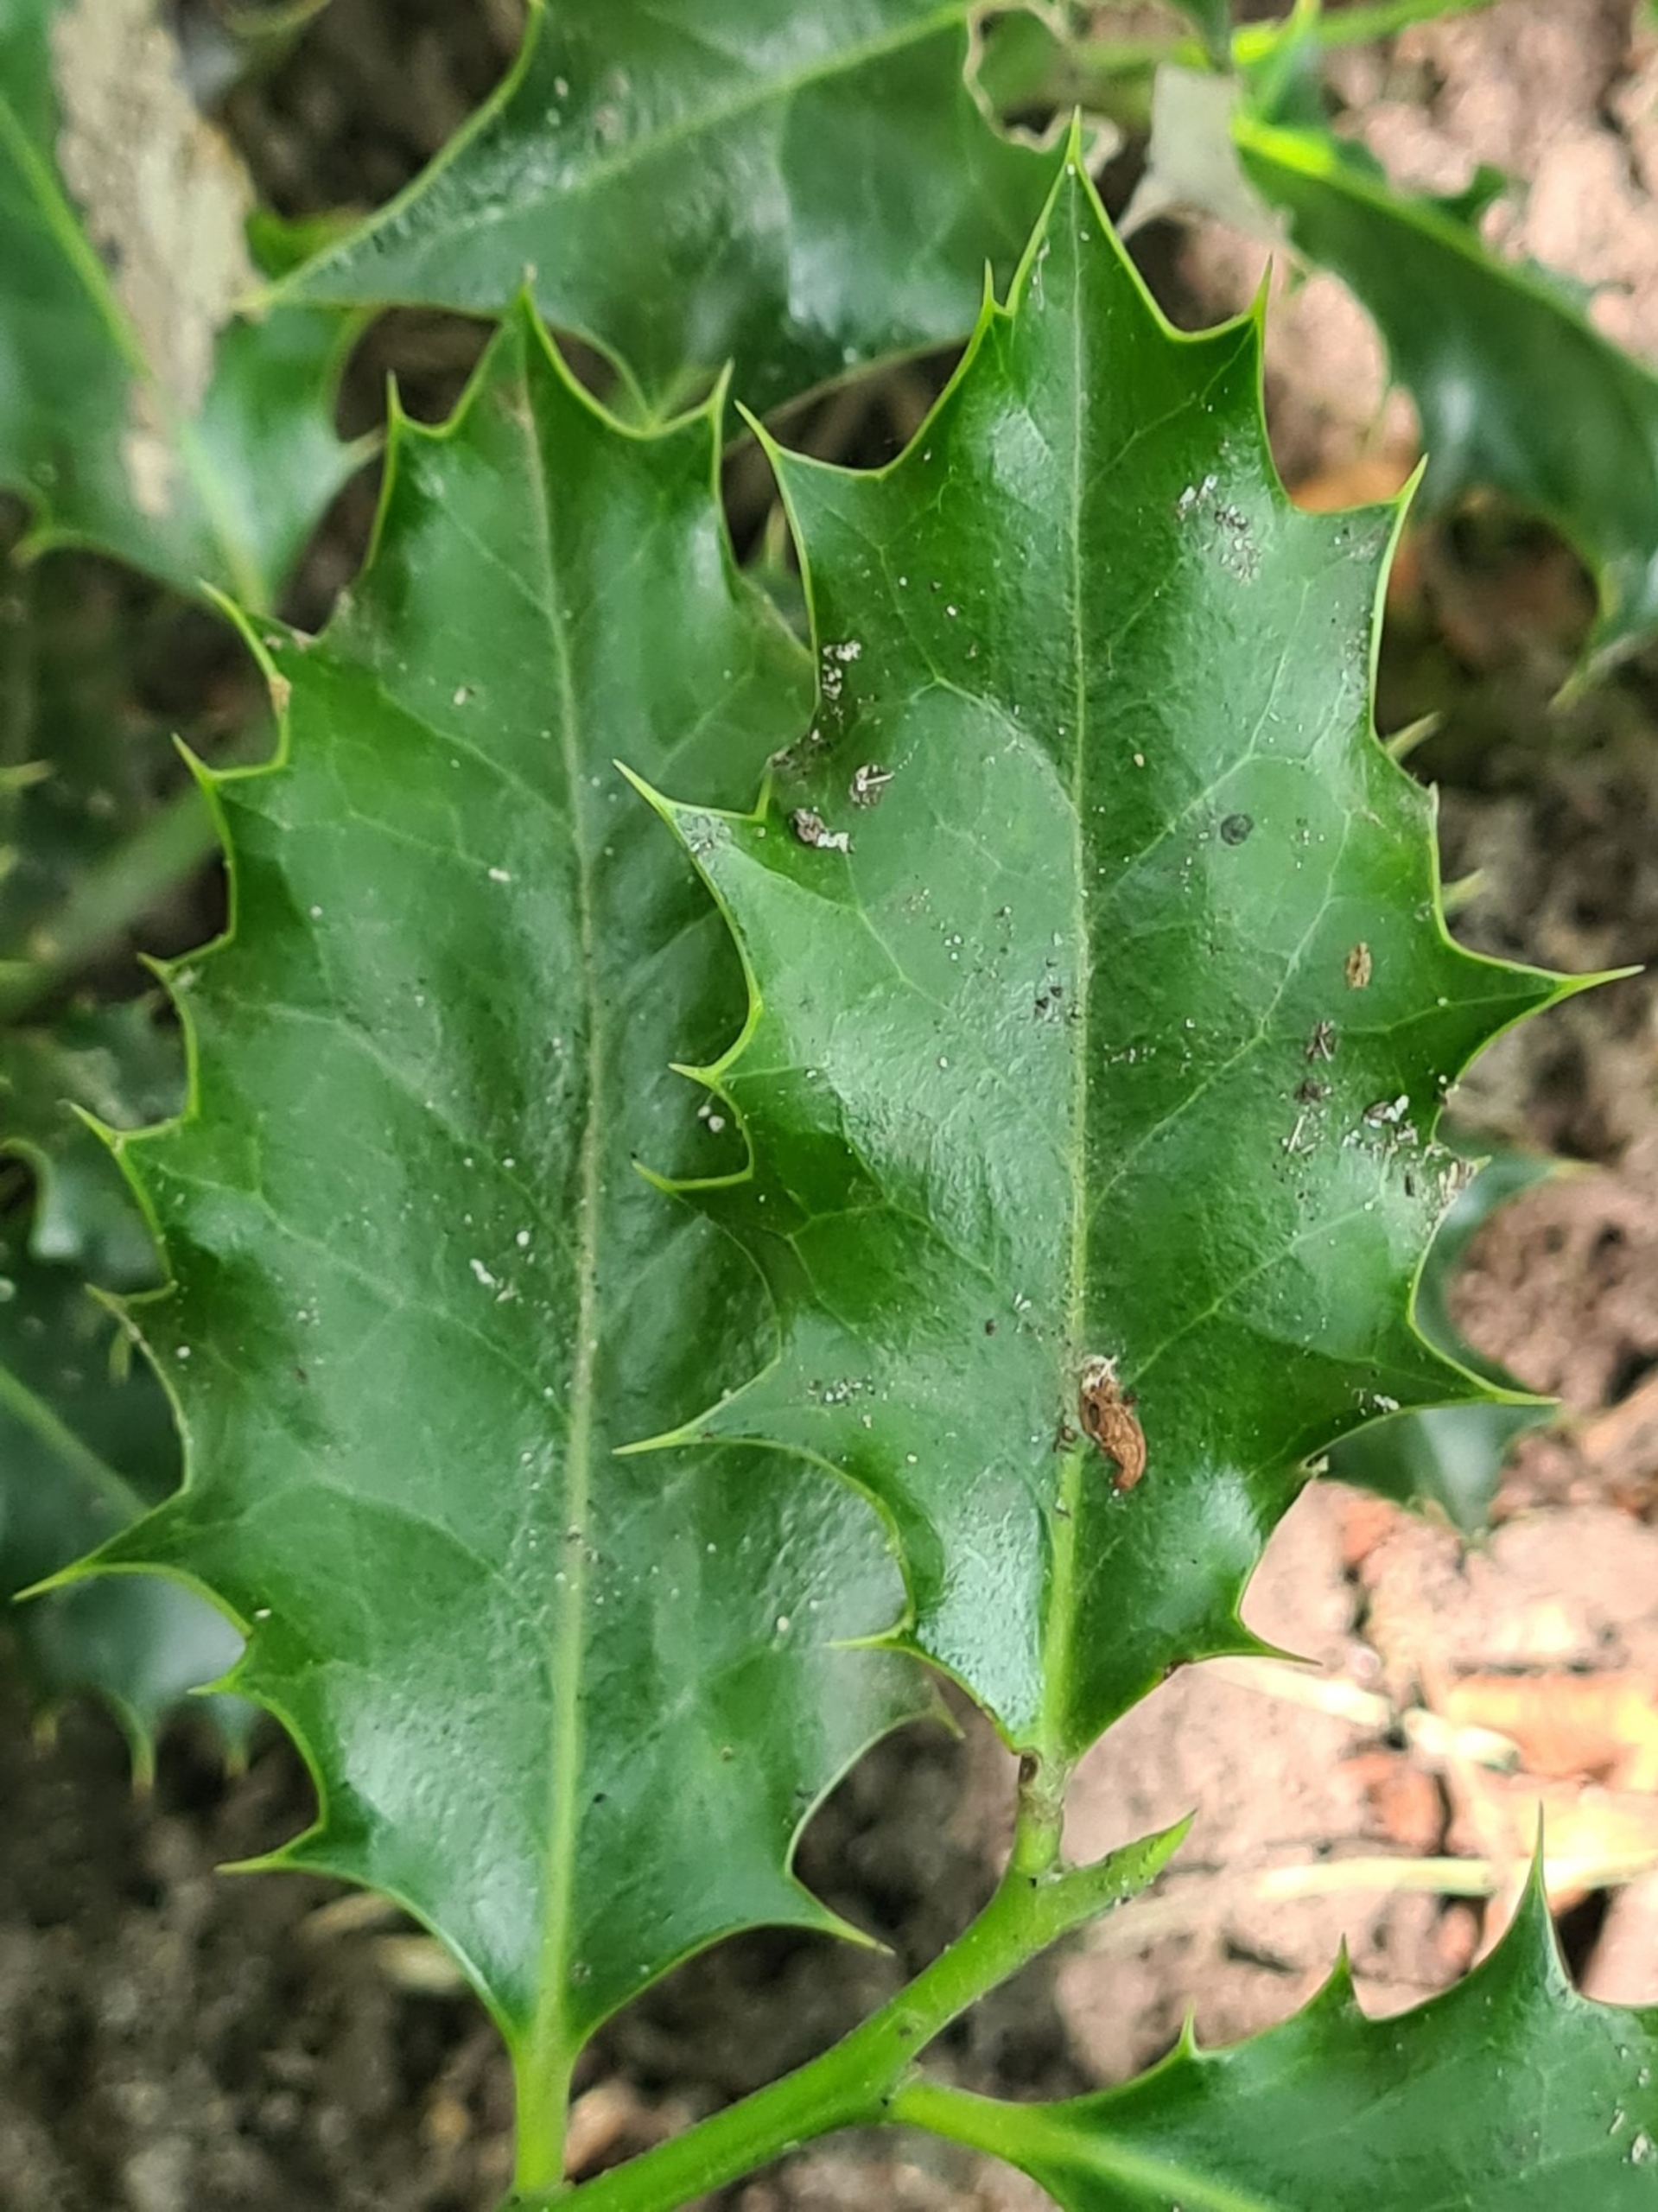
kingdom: Plantae
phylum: Tracheophyta
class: Magnoliopsida
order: Aquifoliales
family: Aquifoliaceae
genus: Ilex
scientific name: Ilex aquifolium
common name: Kristtorn
